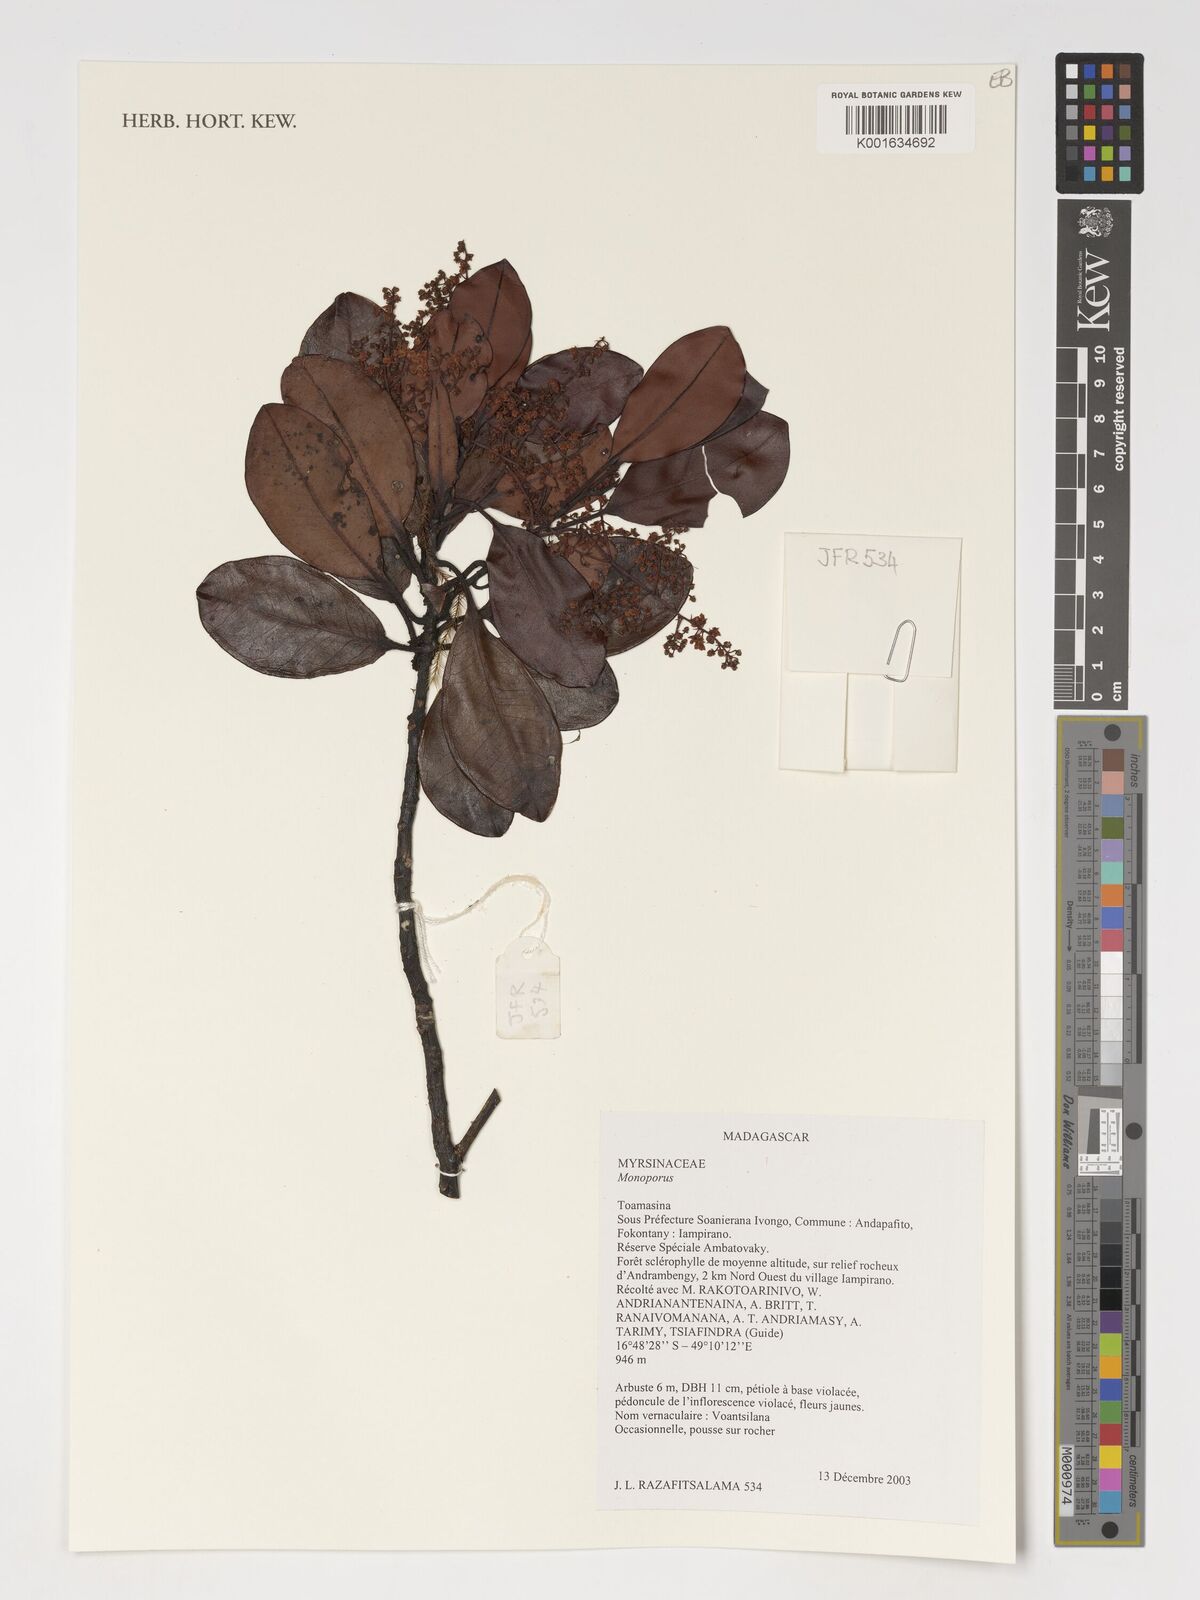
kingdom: Plantae
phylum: Tracheophyta
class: Magnoliopsida
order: Ericales
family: Primulaceae
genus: Monoporus
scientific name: Monoporus
